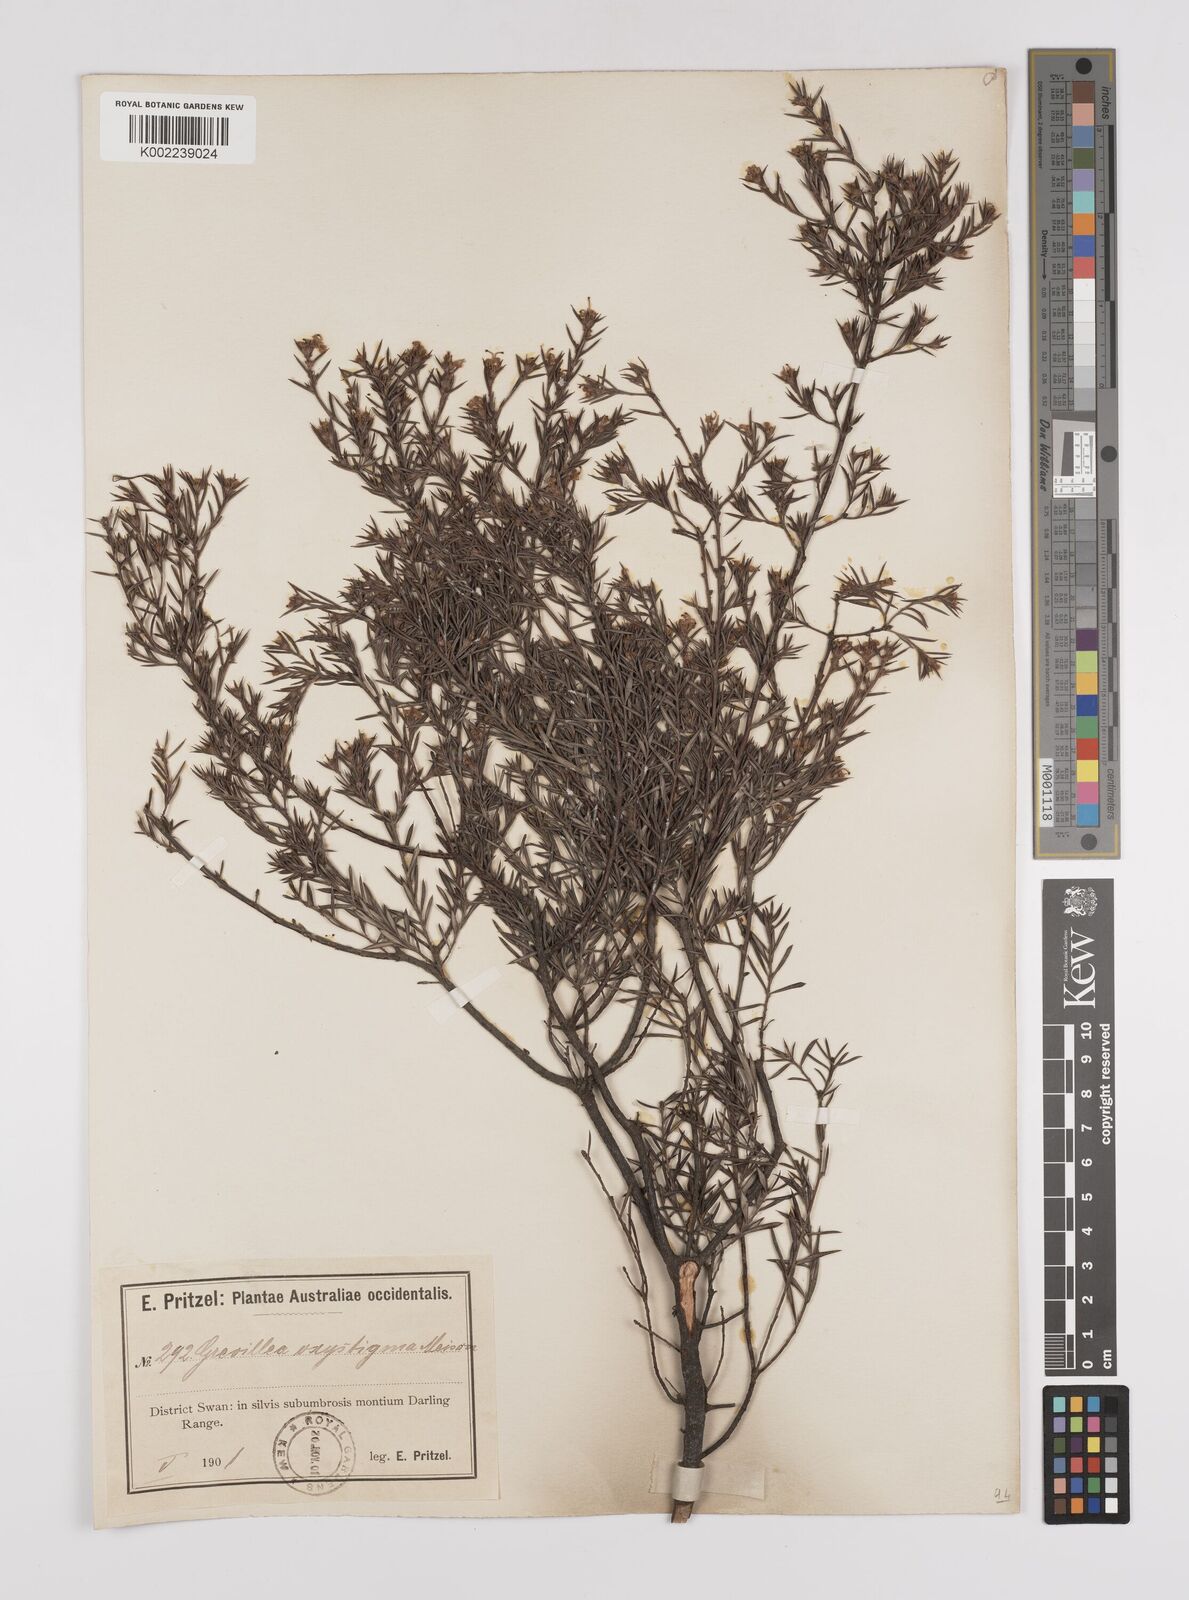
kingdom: Plantae
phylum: Tracheophyta
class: Magnoliopsida
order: Proteales
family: Proteaceae
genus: Grevillea
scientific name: Grevillea pilulifera
